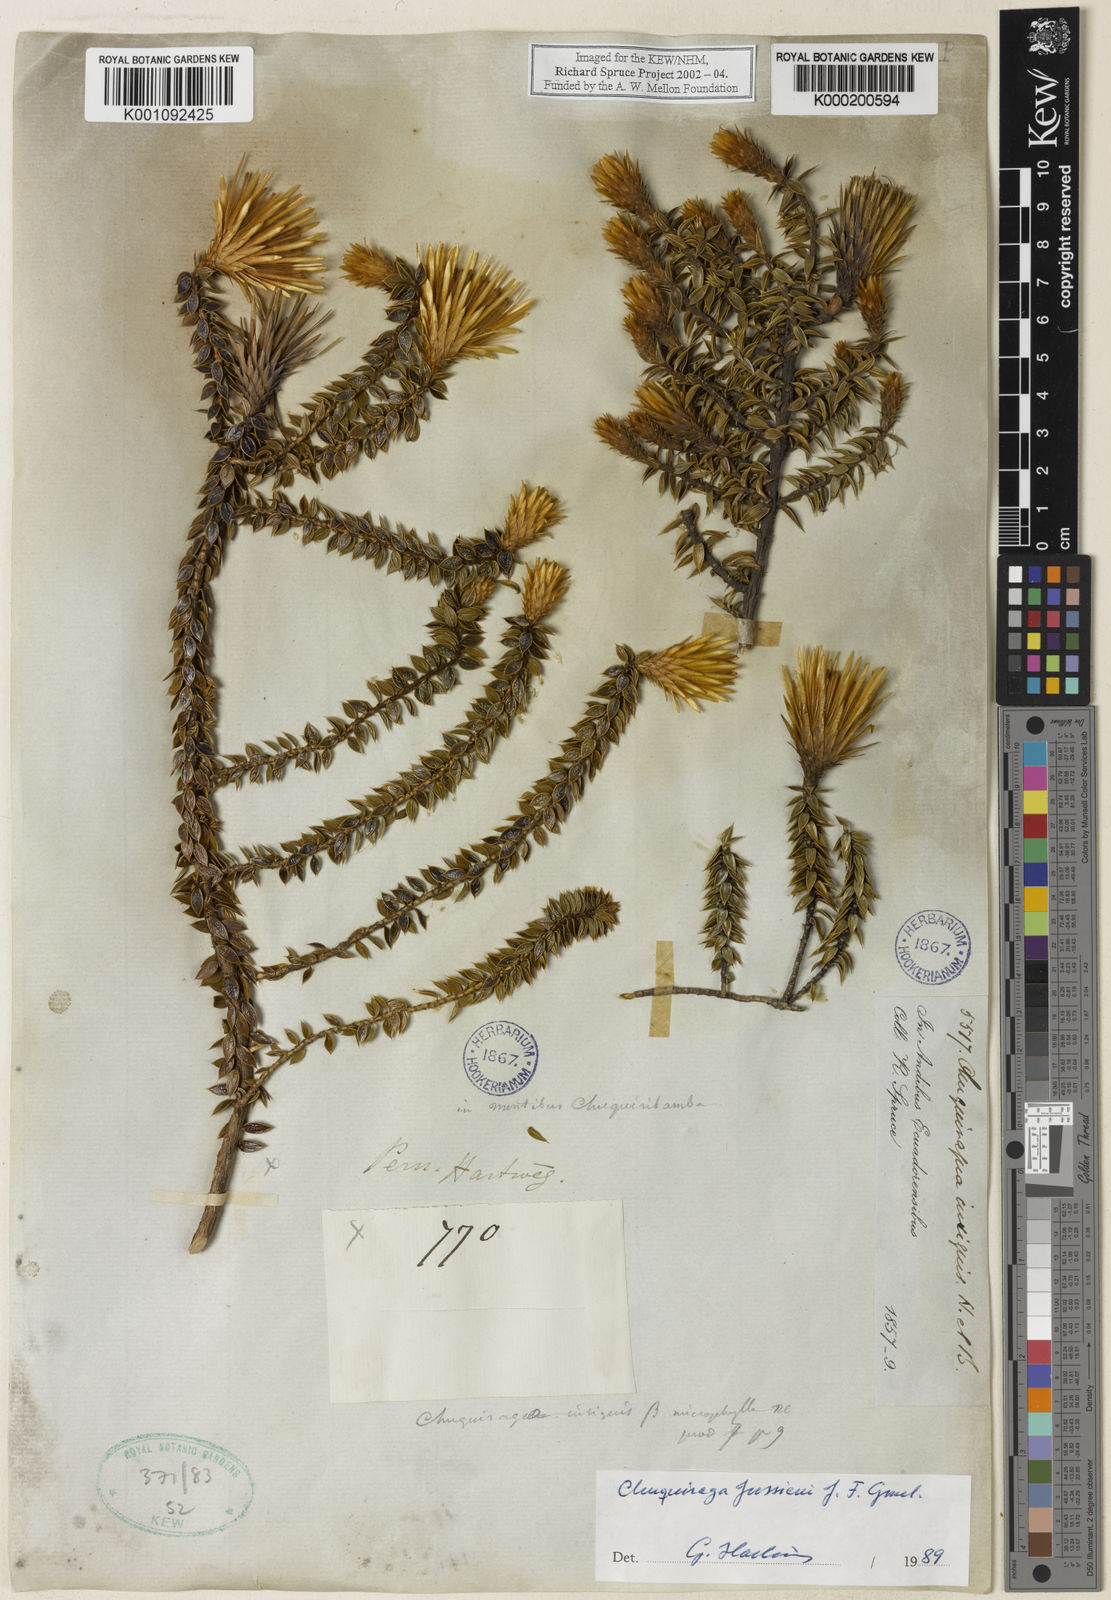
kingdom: Plantae
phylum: Tracheophyta
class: Magnoliopsida
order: Asterales
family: Asteraceae
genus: Chuquiraga
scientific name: Chuquiraga jussieui
